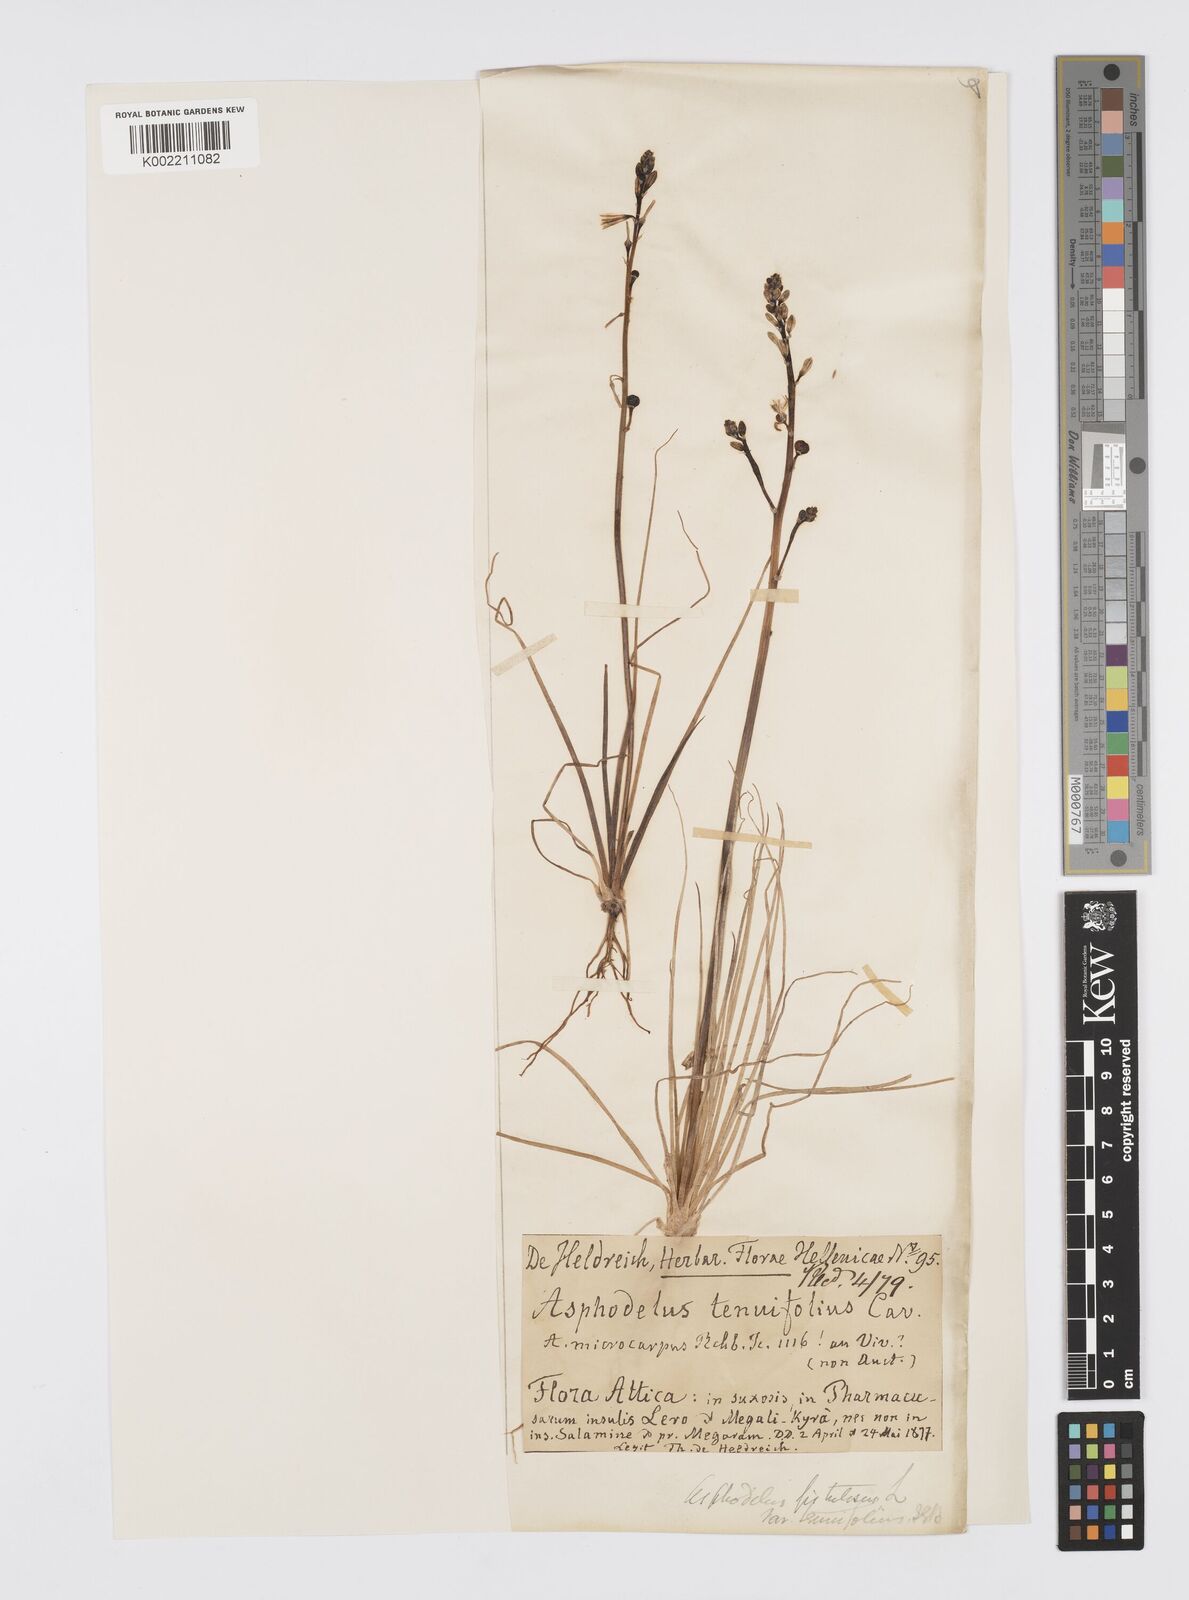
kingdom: Plantae
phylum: Tracheophyta
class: Liliopsida
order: Asparagales
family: Asphodelaceae
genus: Asphodelus
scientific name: Asphodelus tenuifolius
